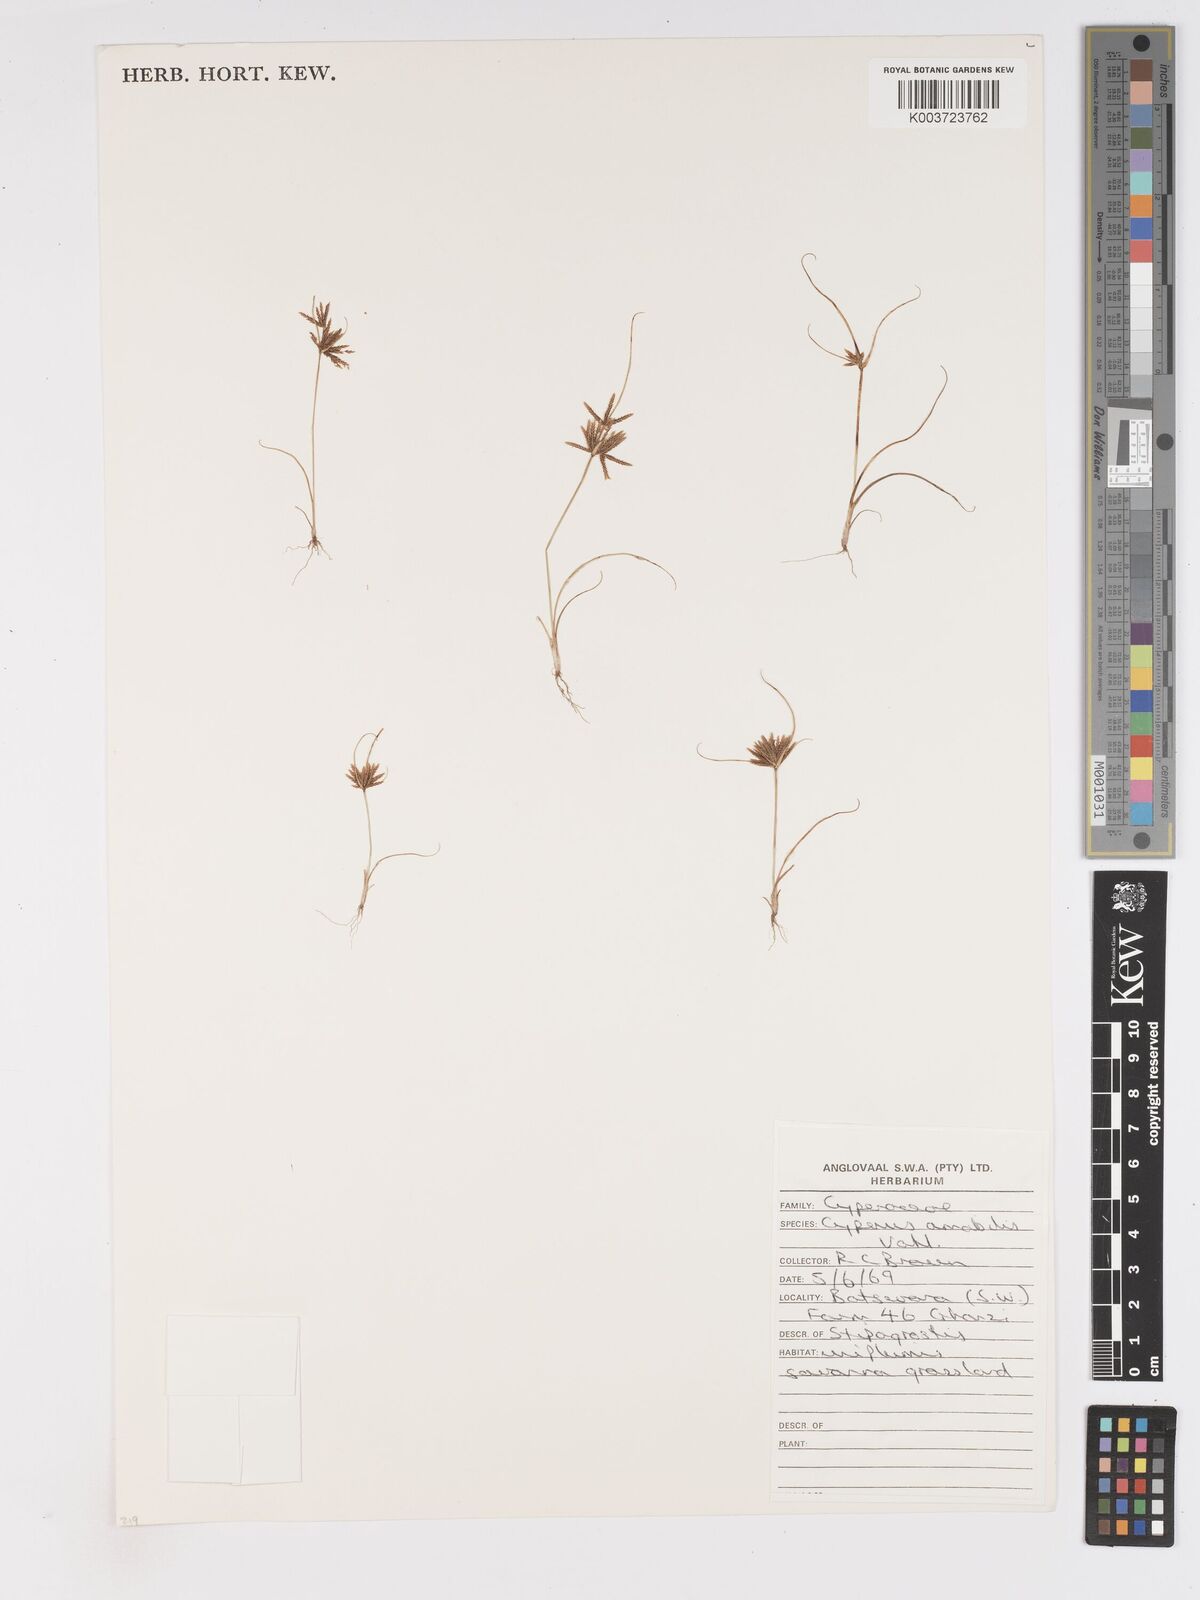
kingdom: Plantae
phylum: Tracheophyta
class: Liliopsida
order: Poales
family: Cyperaceae
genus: Cyperus
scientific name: Cyperus amabilis
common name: Foothill flat sedge
